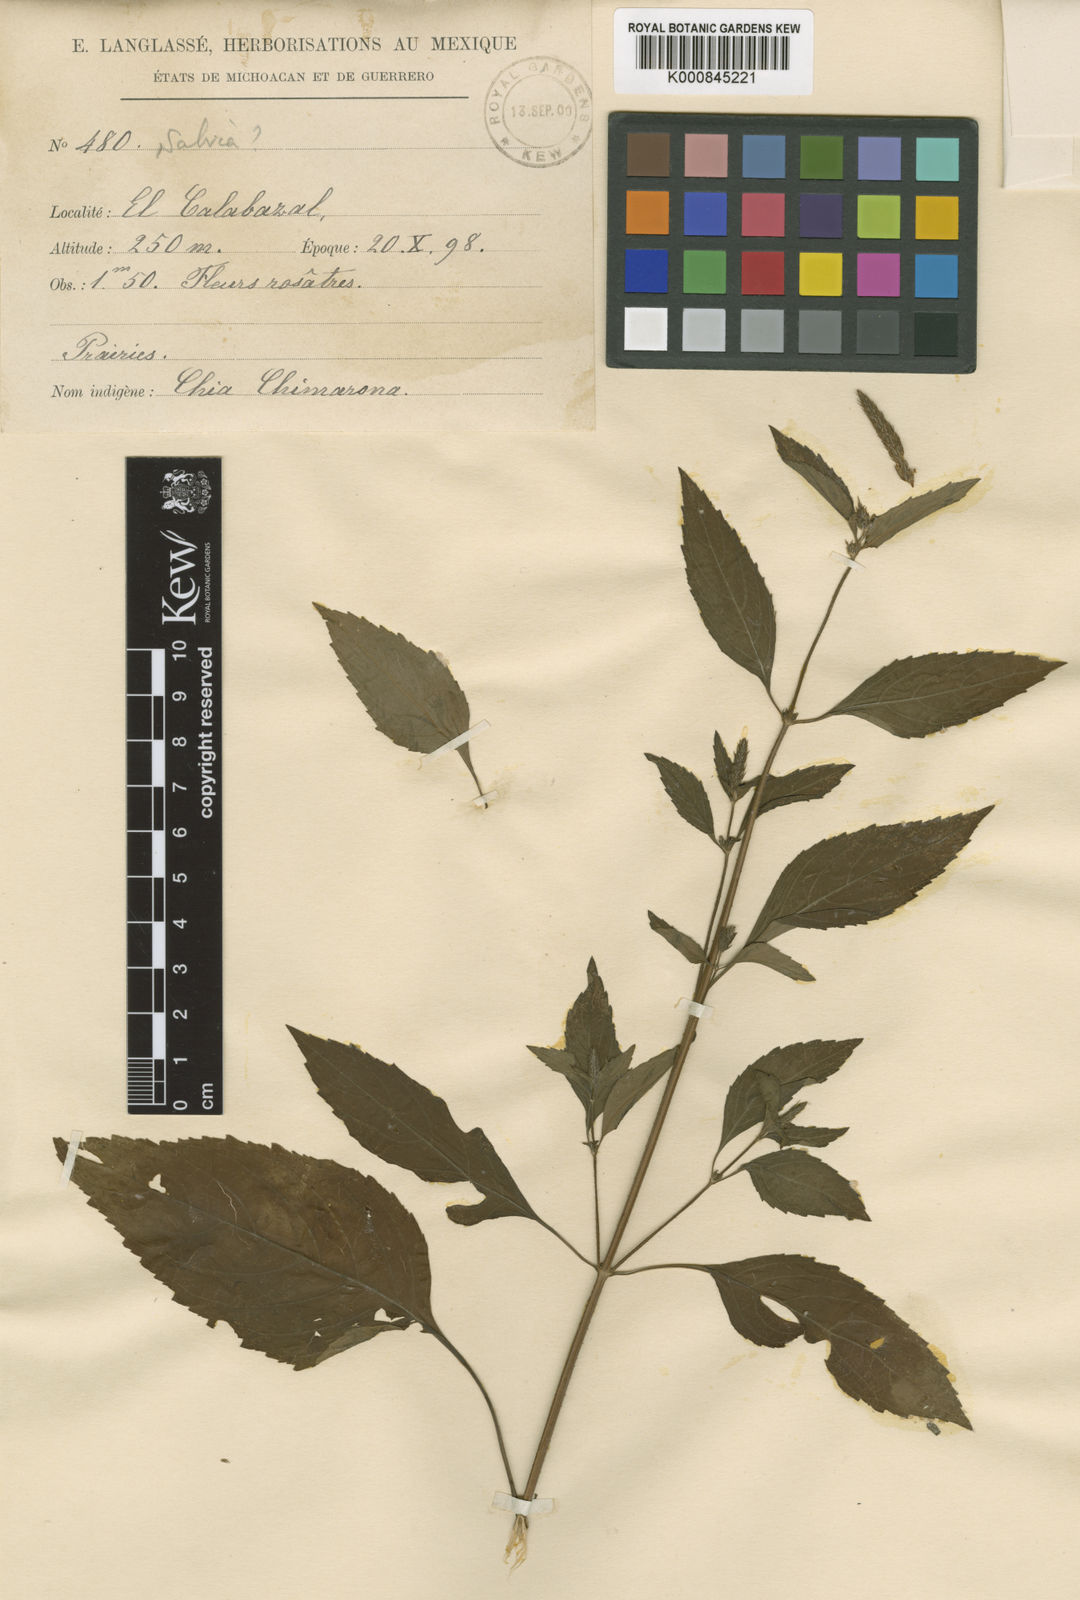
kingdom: Plantae
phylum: Tracheophyta
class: Magnoliopsida
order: Lamiales
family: Lamiaceae
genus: Salvia
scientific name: Salvia
